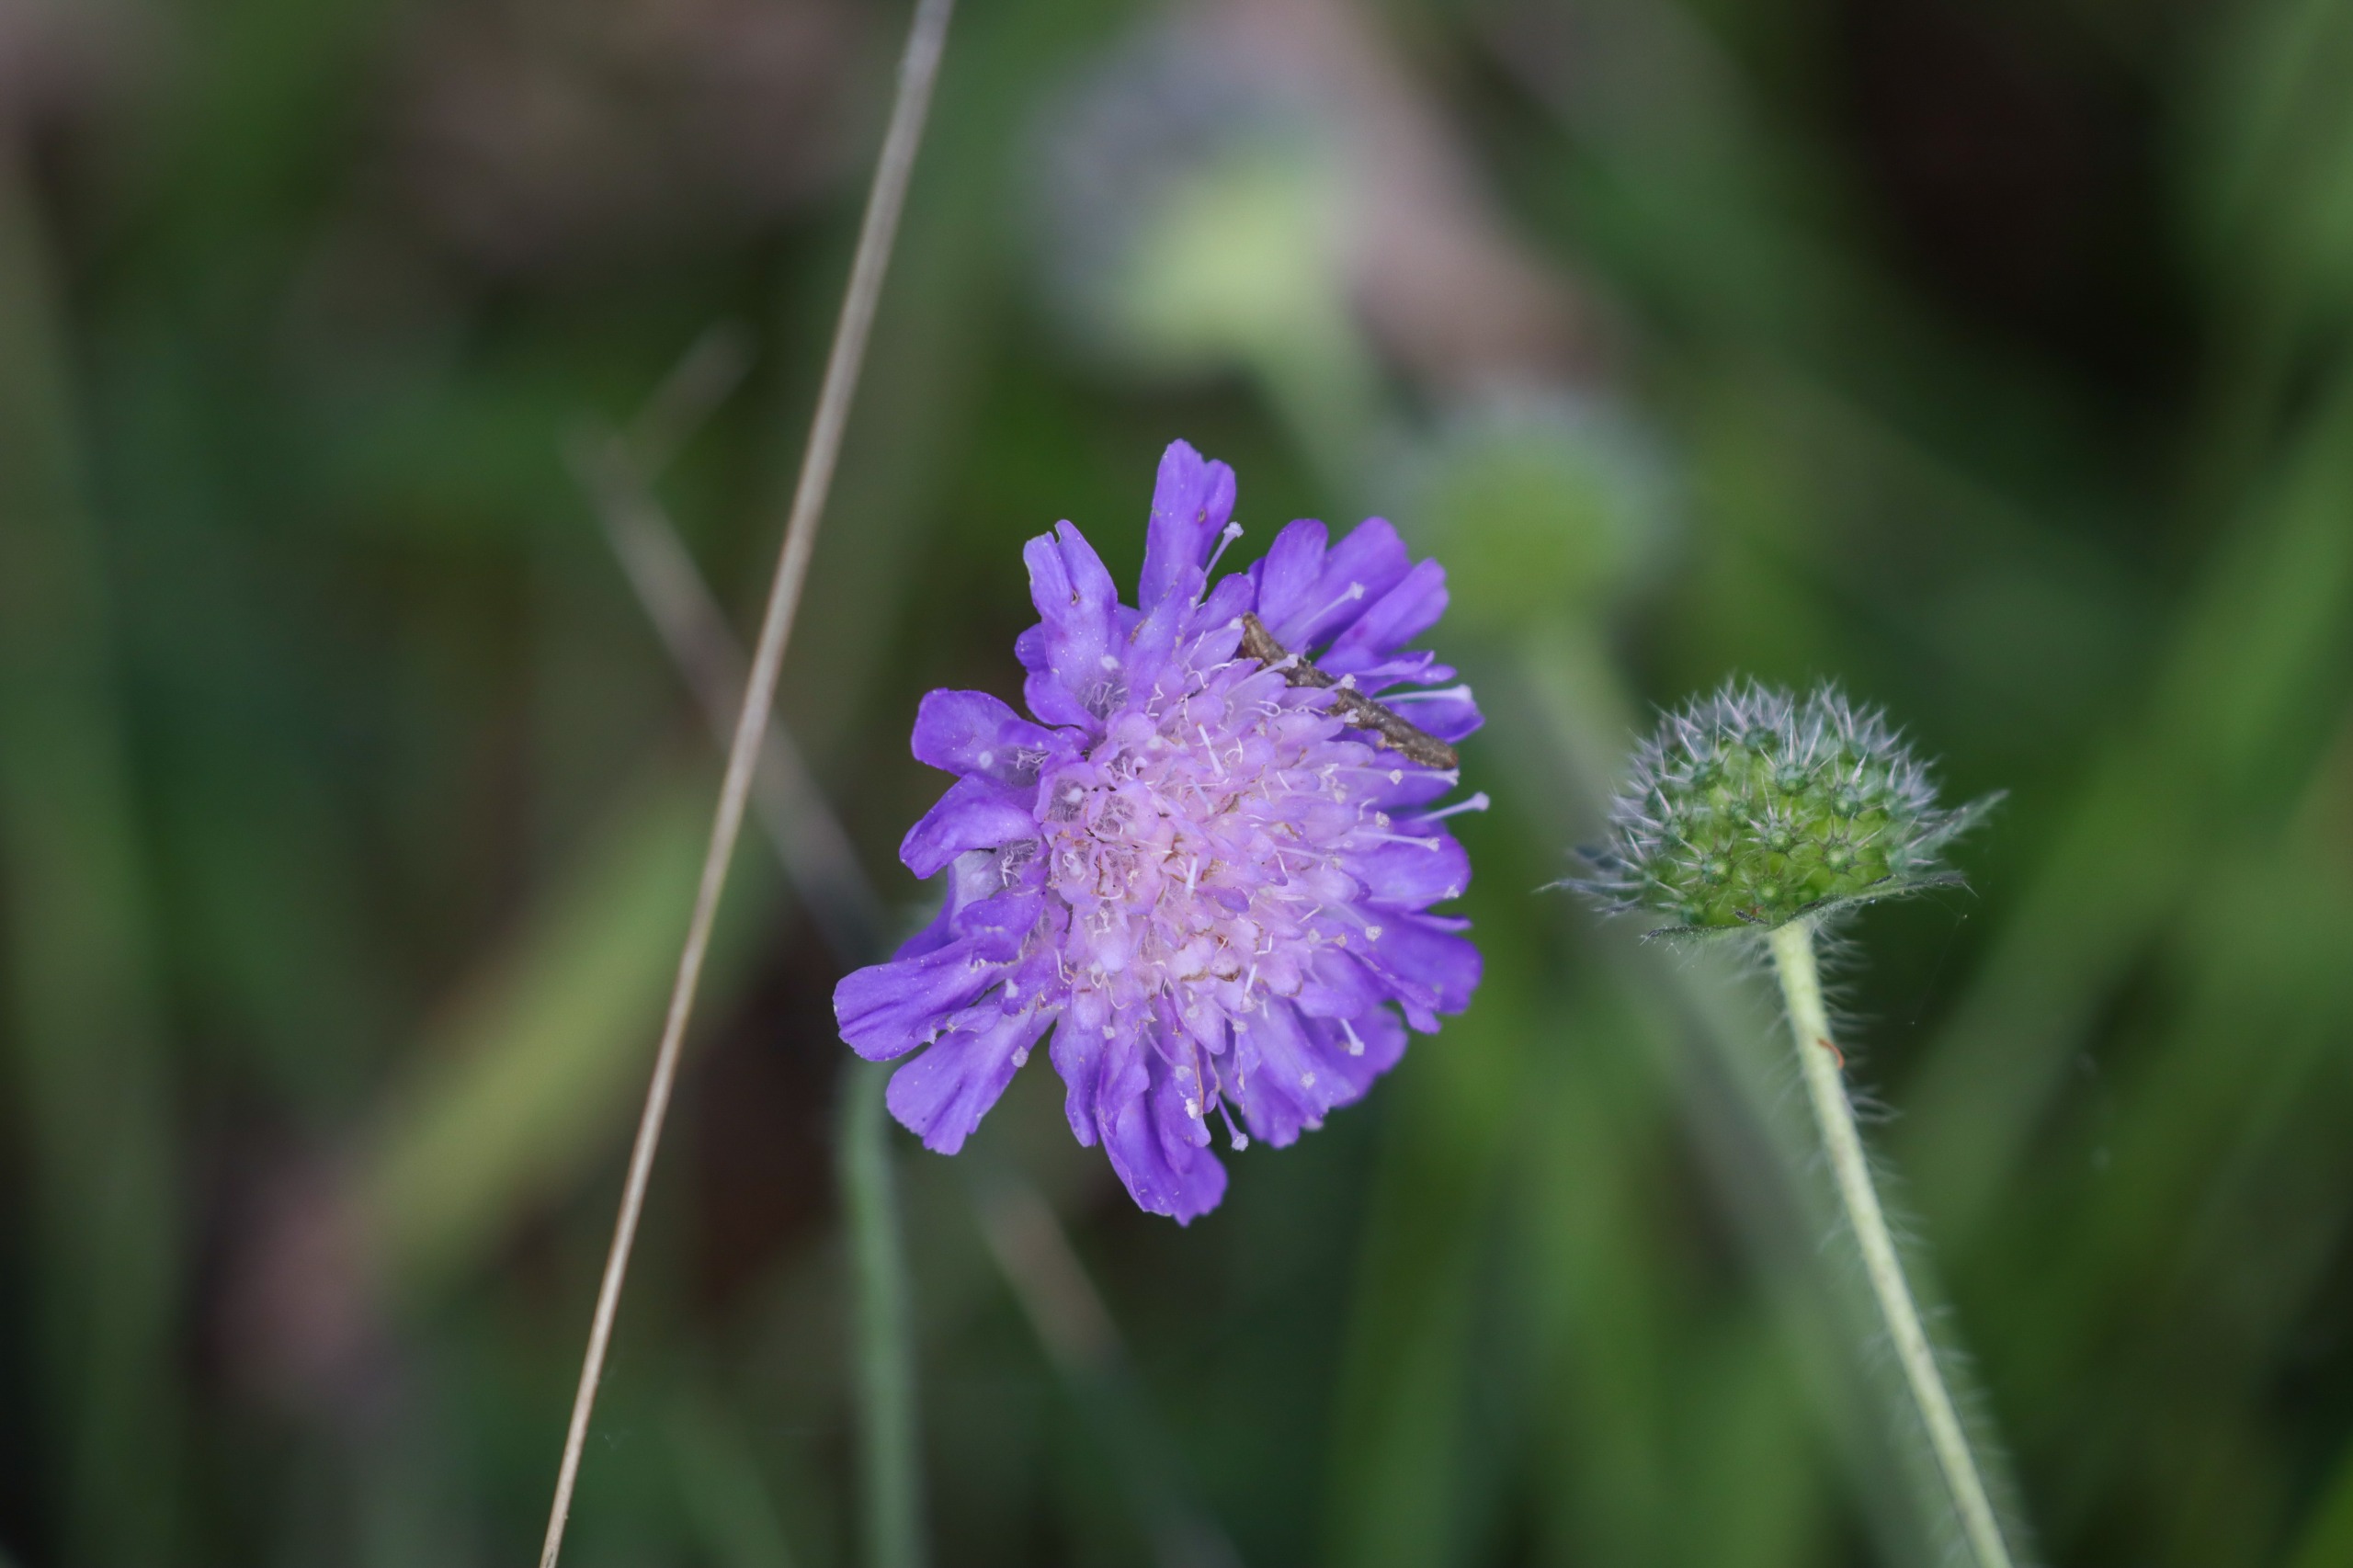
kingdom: Plantae
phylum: Tracheophyta
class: Magnoliopsida
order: Dipsacales
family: Caprifoliaceae
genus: Knautia
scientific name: Knautia arvensis
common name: Blåhat
